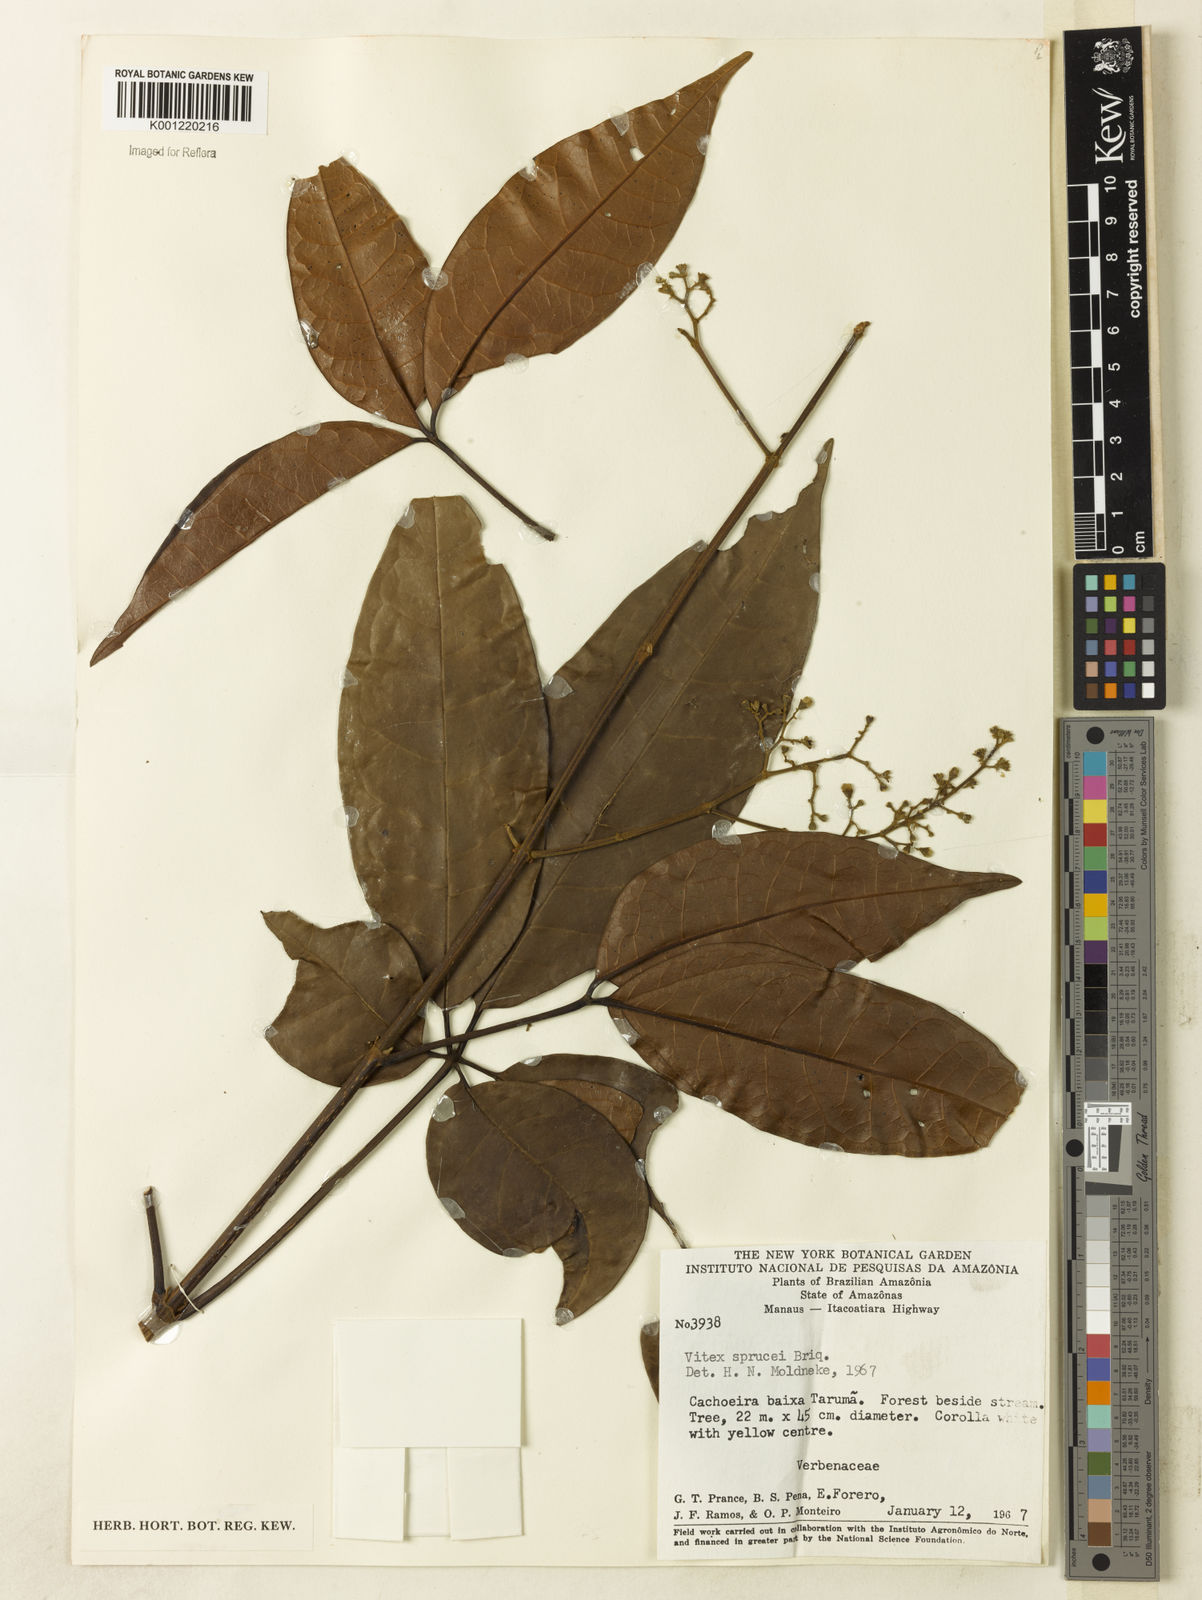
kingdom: Plantae
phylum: Tracheophyta
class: Magnoliopsida
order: Lamiales
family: Lamiaceae
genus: Vitex
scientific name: Vitex sprucei
